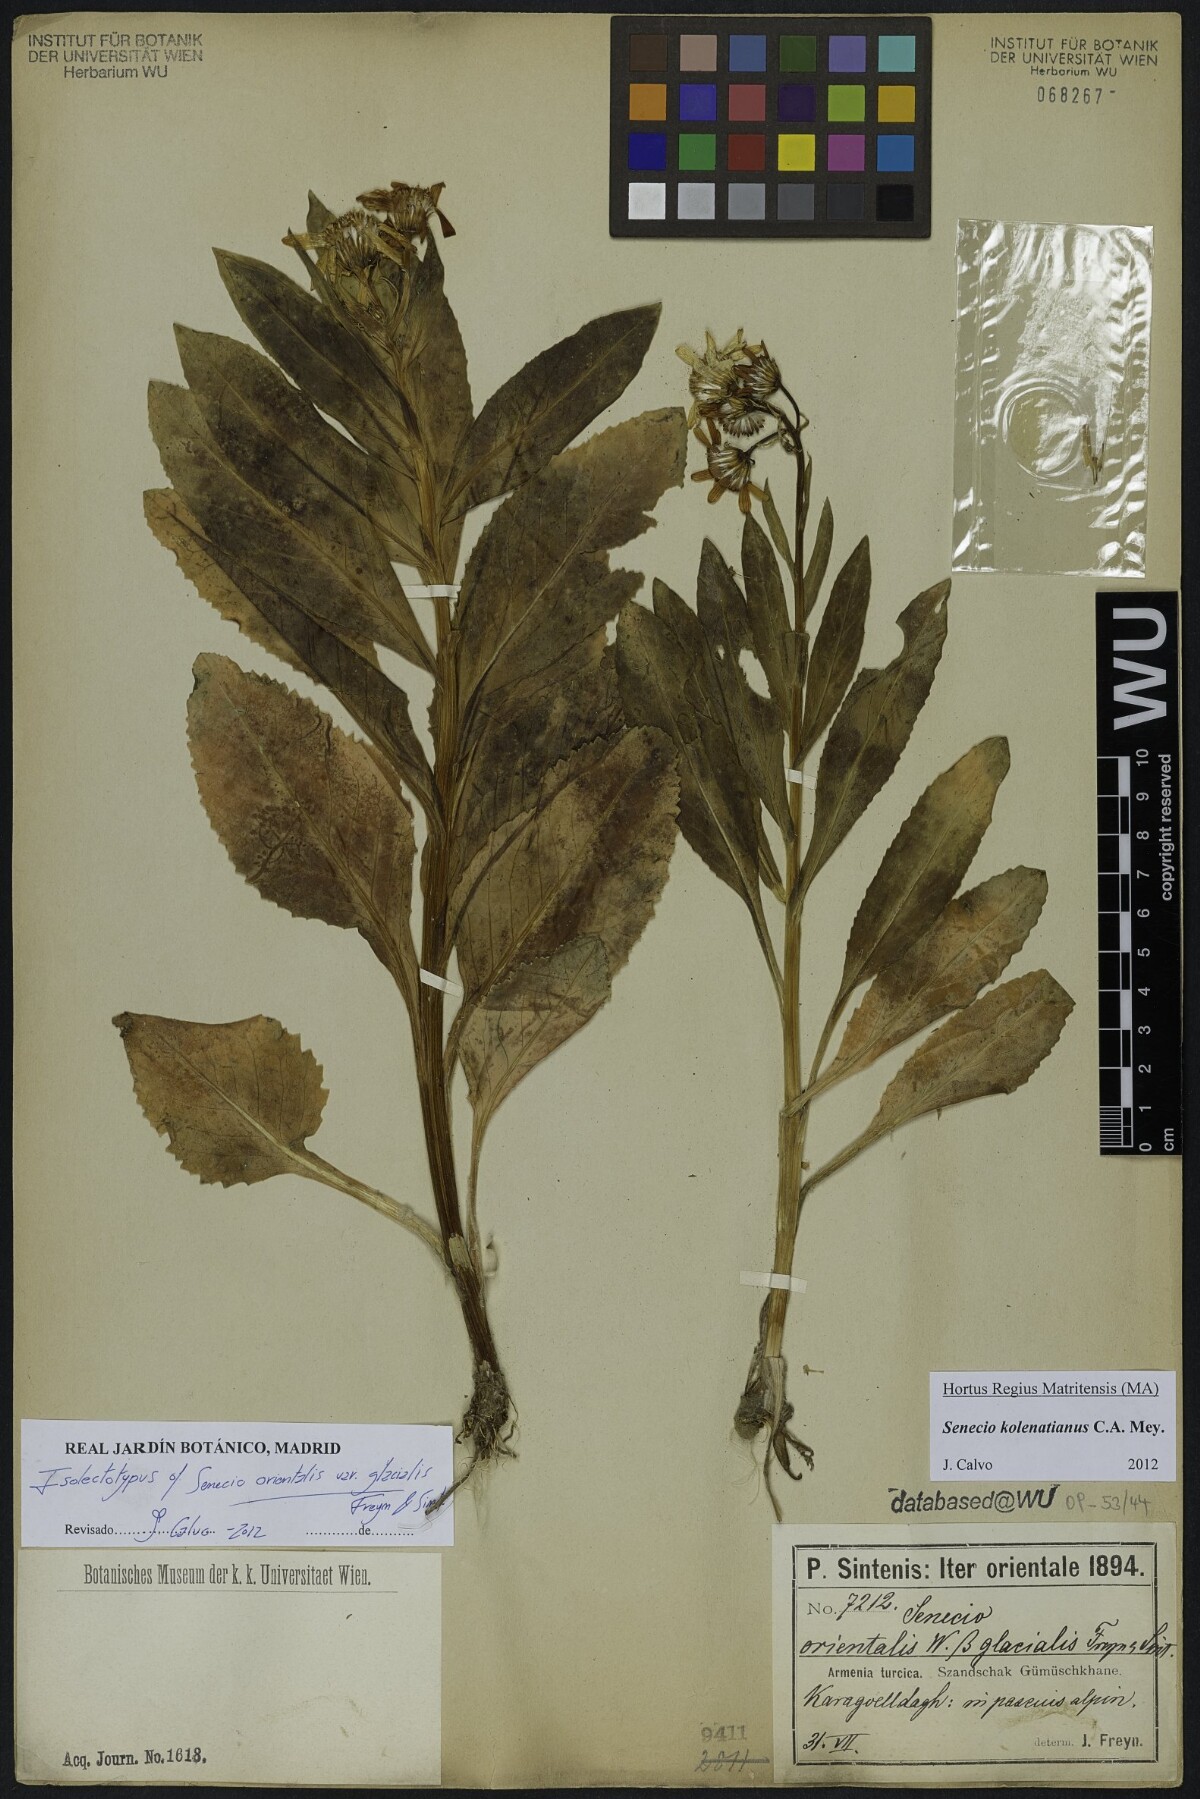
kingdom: Plantae
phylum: Tracheophyta
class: Magnoliopsida
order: Asterales
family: Asteraceae
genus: Senecio
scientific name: Senecio orientalis
